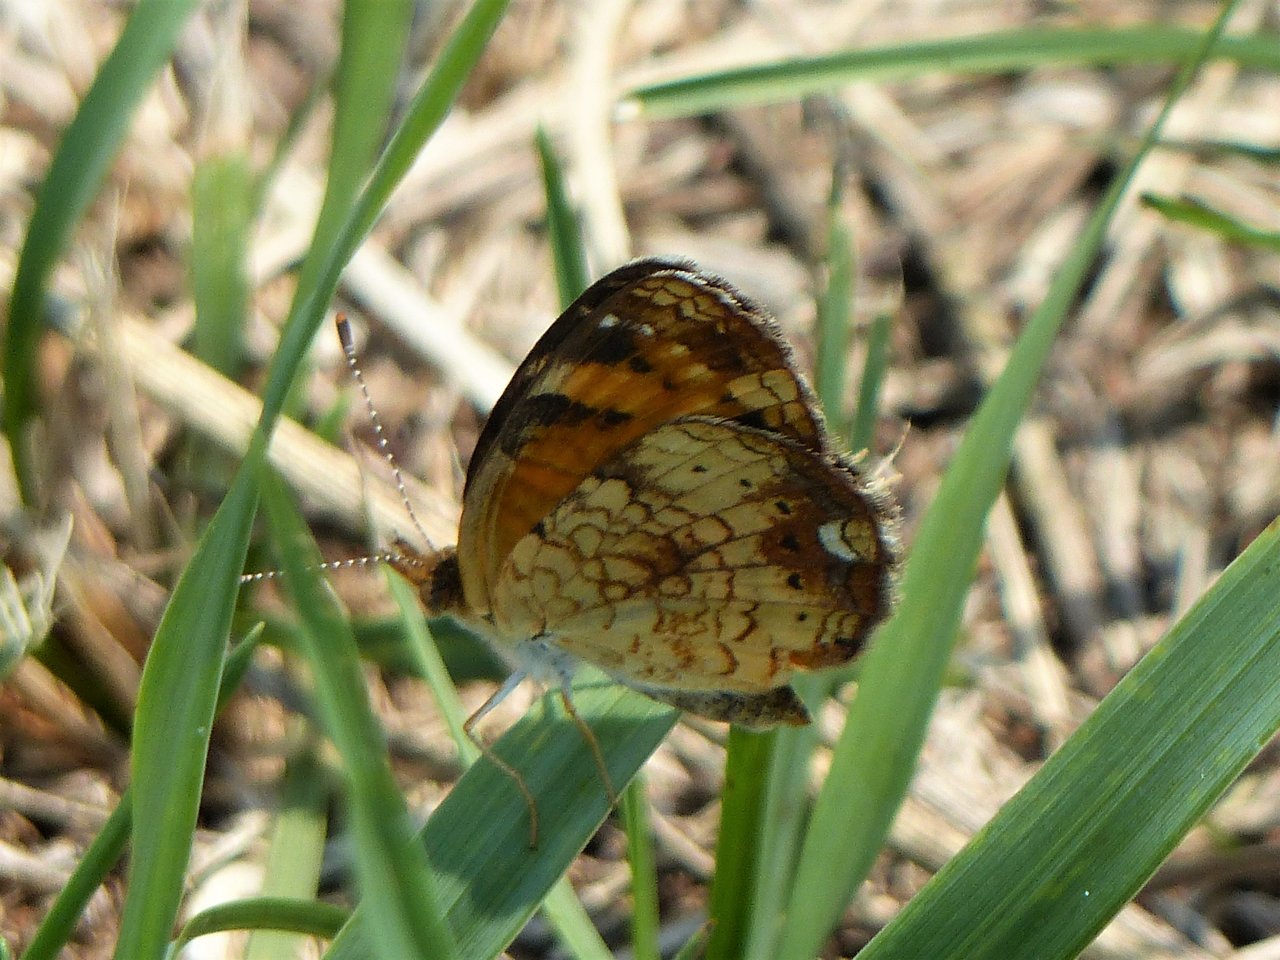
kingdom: Animalia
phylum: Arthropoda
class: Insecta
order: Lepidoptera
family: Nymphalidae
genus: Phyciodes
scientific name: Phyciodes tharos
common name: Northern Crescent
